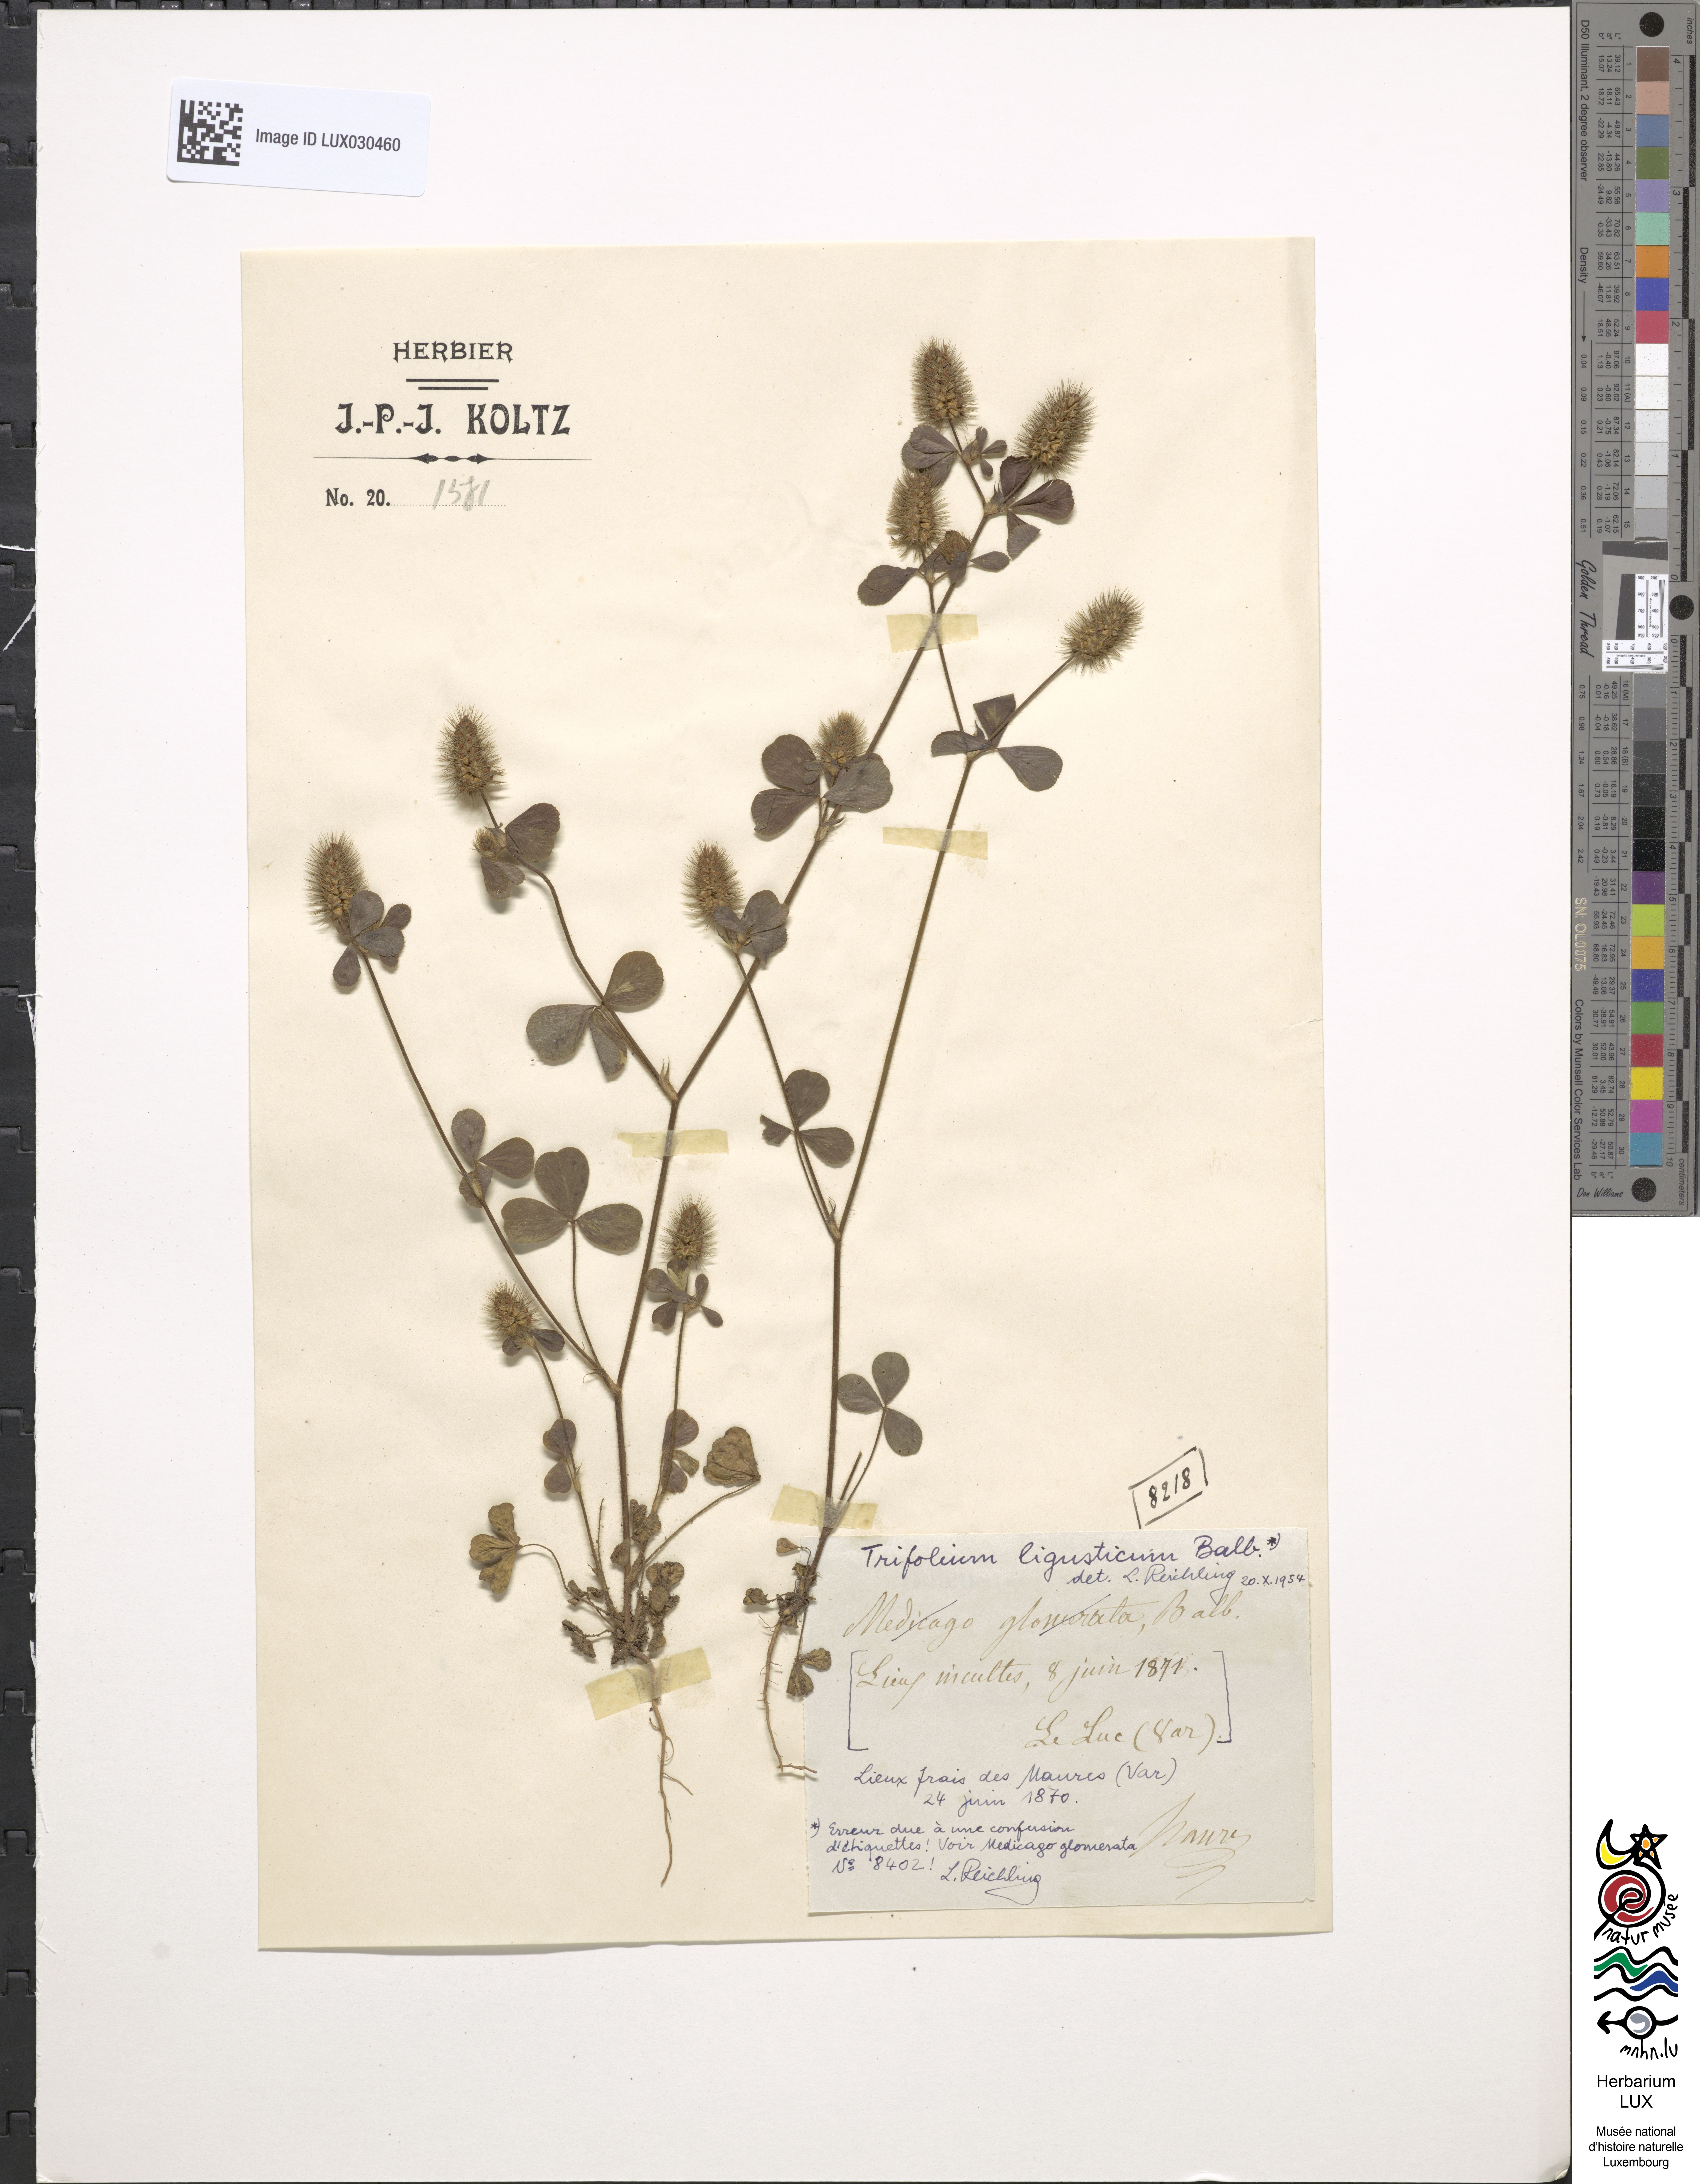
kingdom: Plantae
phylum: Tracheophyta
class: Magnoliopsida
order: Fabales
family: Fabaceae
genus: Trifolium
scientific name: Trifolium ligusticum
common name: Ligurian clover
